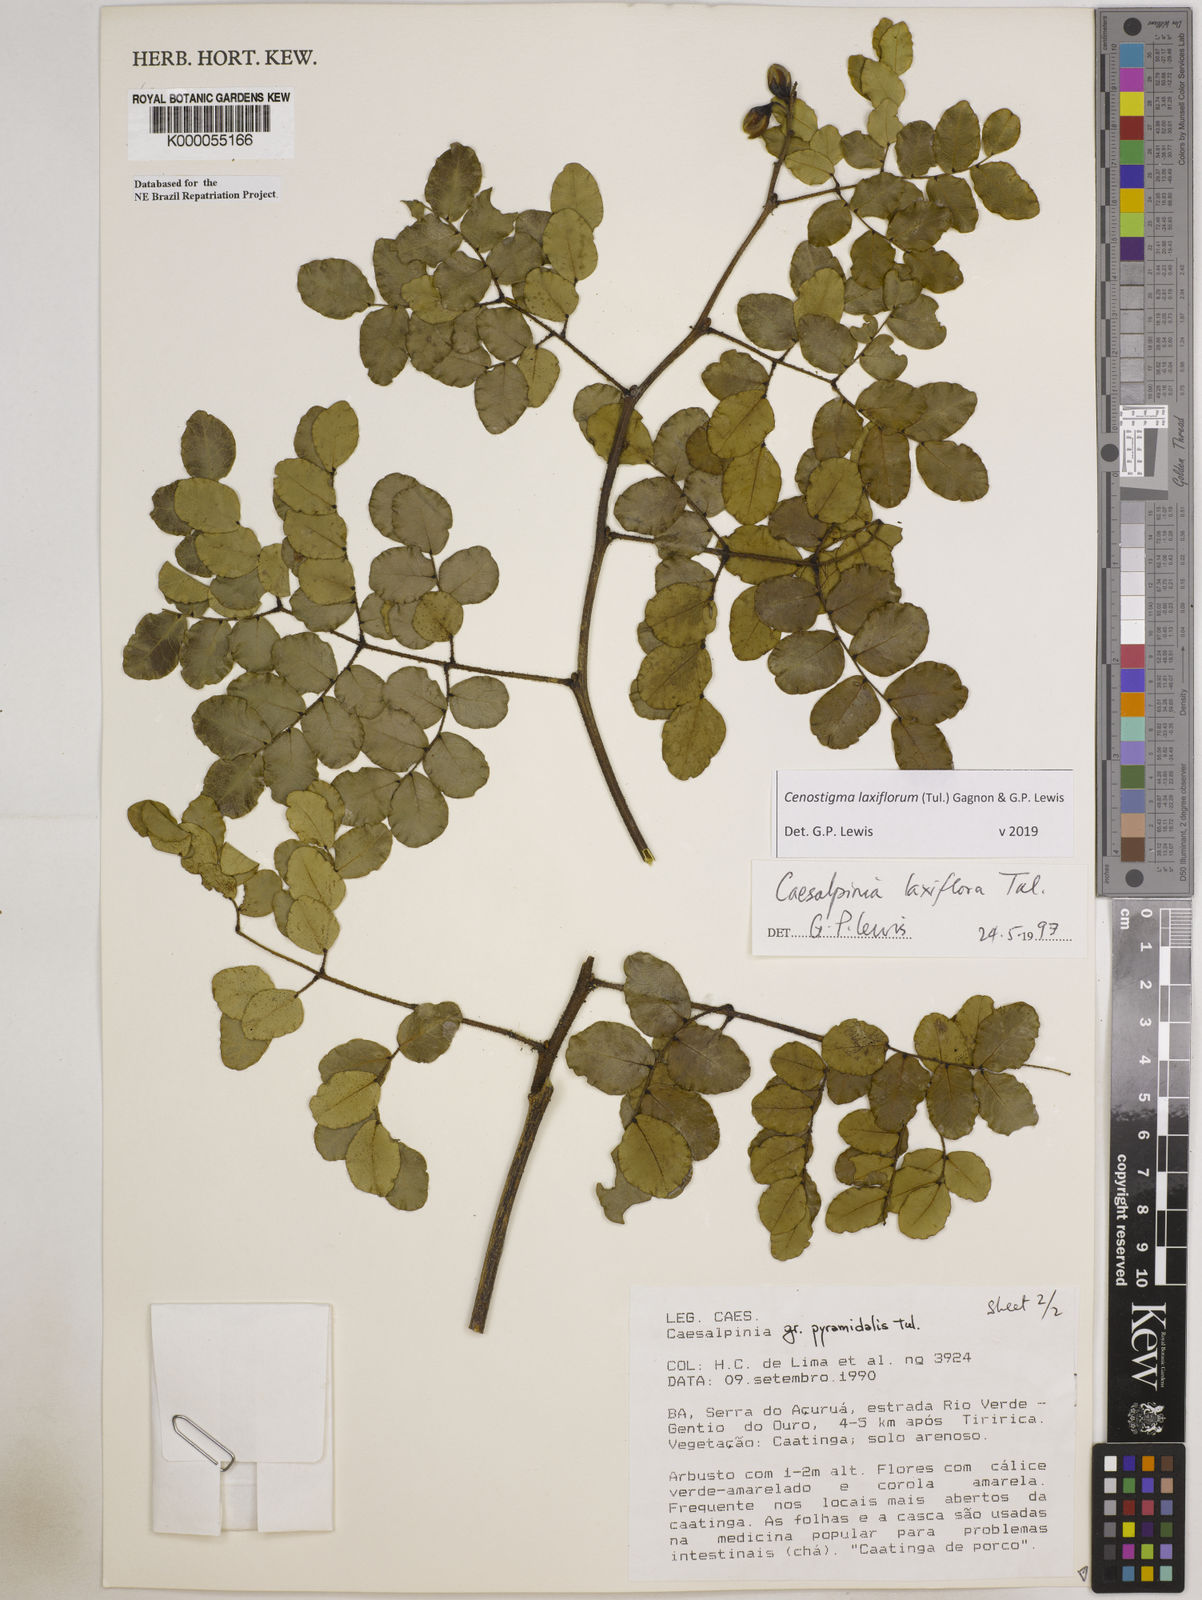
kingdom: Plantae
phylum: Tracheophyta
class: Magnoliopsida
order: Fabales
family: Fabaceae
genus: Cenostigma
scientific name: Cenostigma laxiflorum
